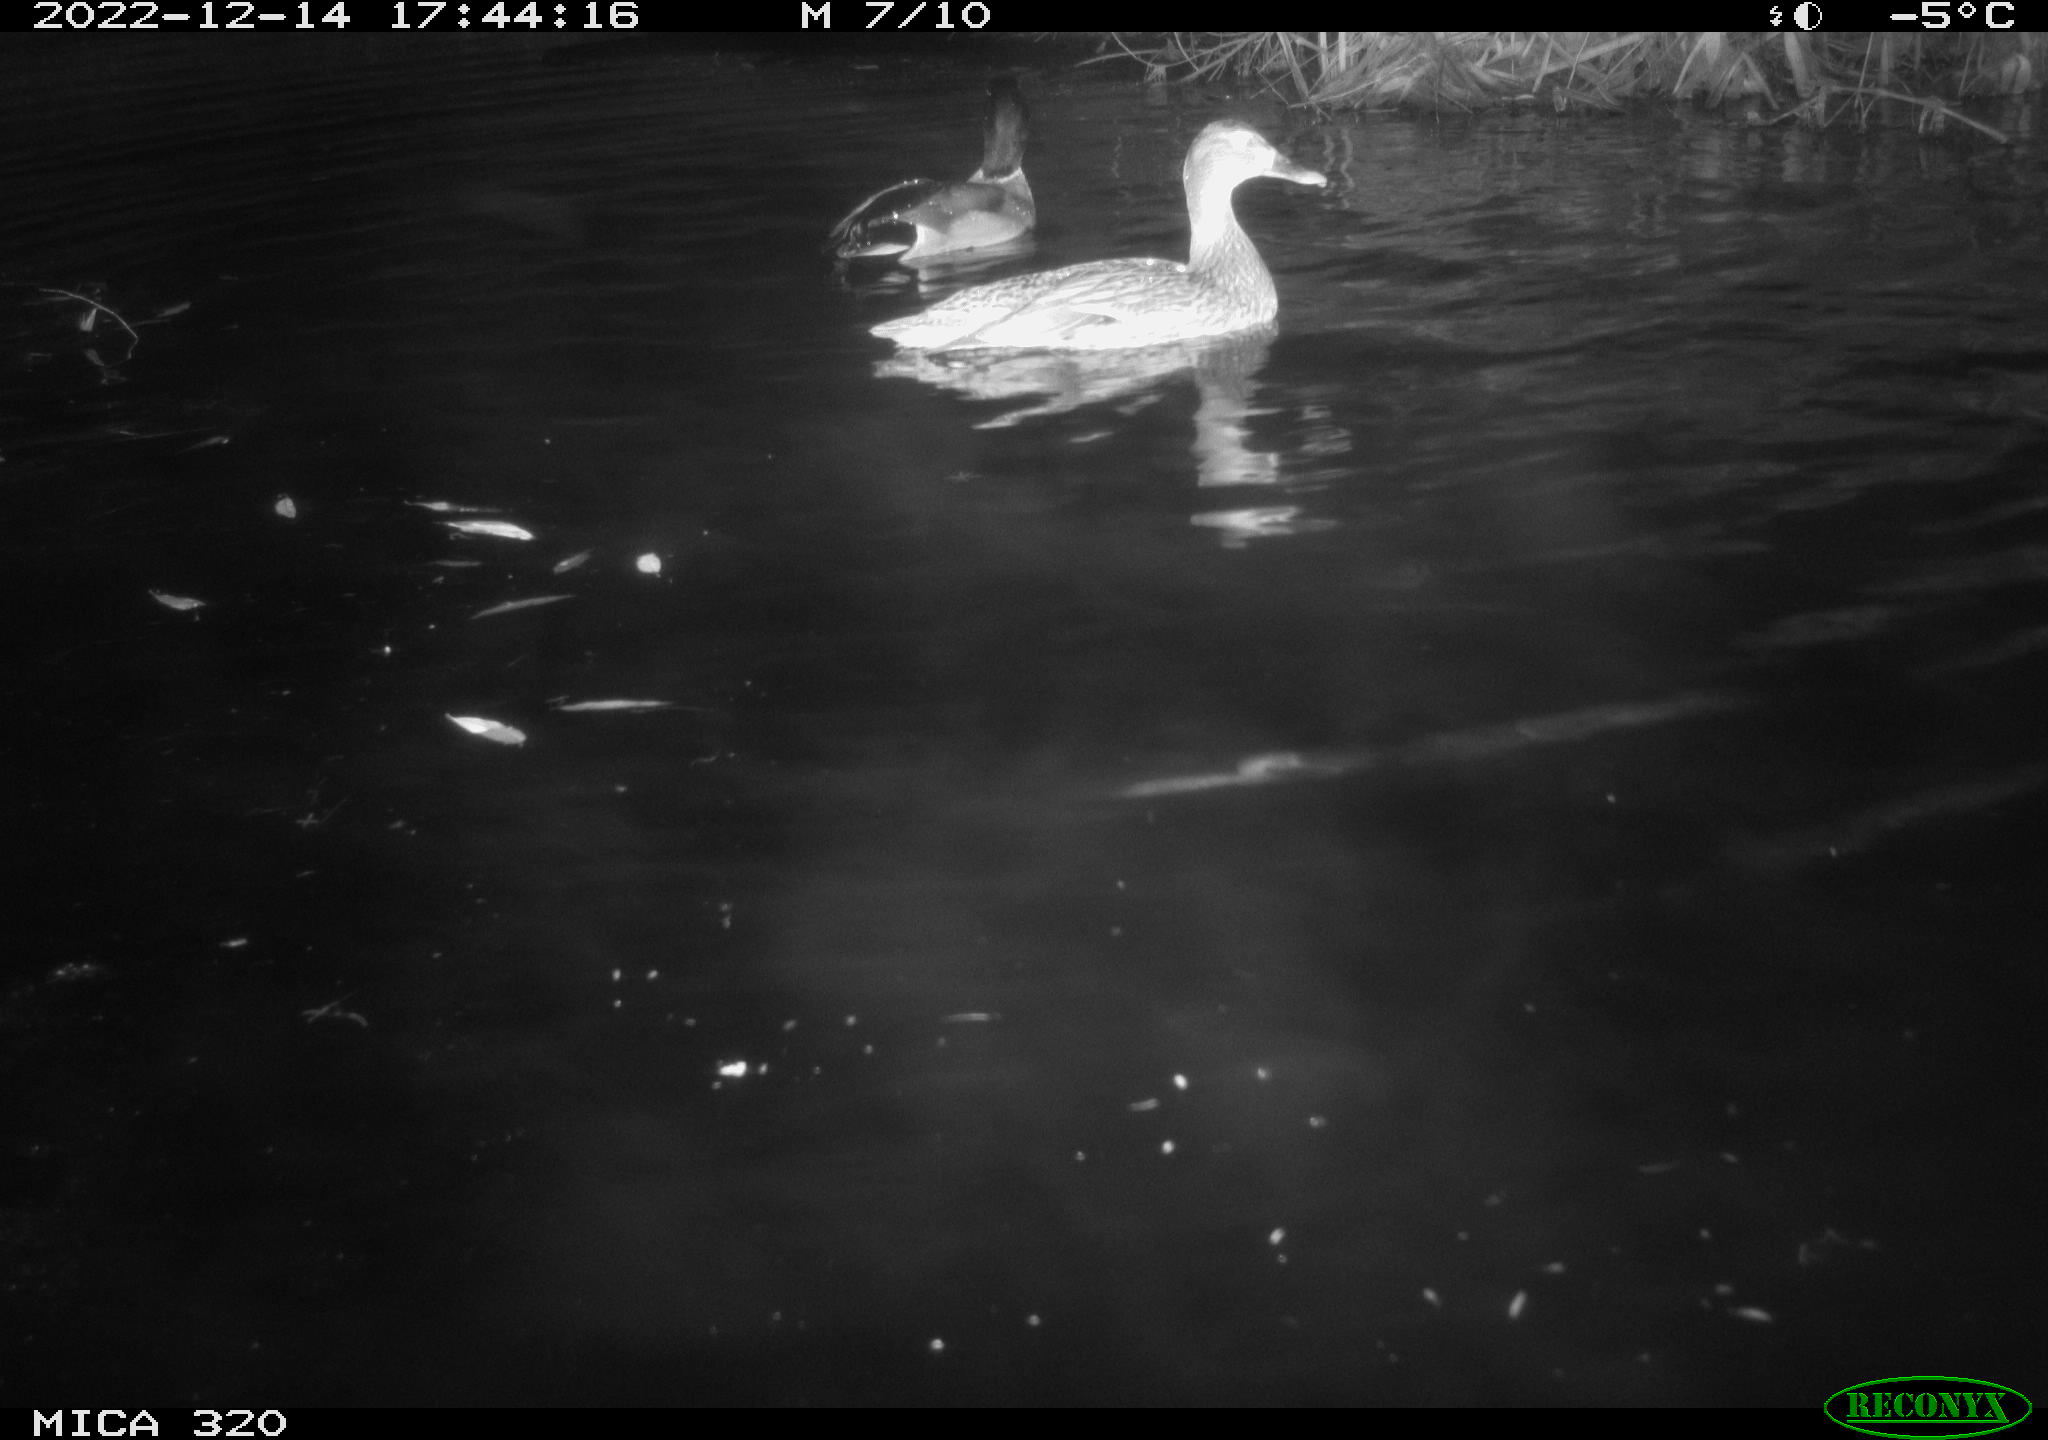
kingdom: Animalia
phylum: Chordata
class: Aves
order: Anseriformes
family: Anatidae
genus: Anas
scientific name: Anas
